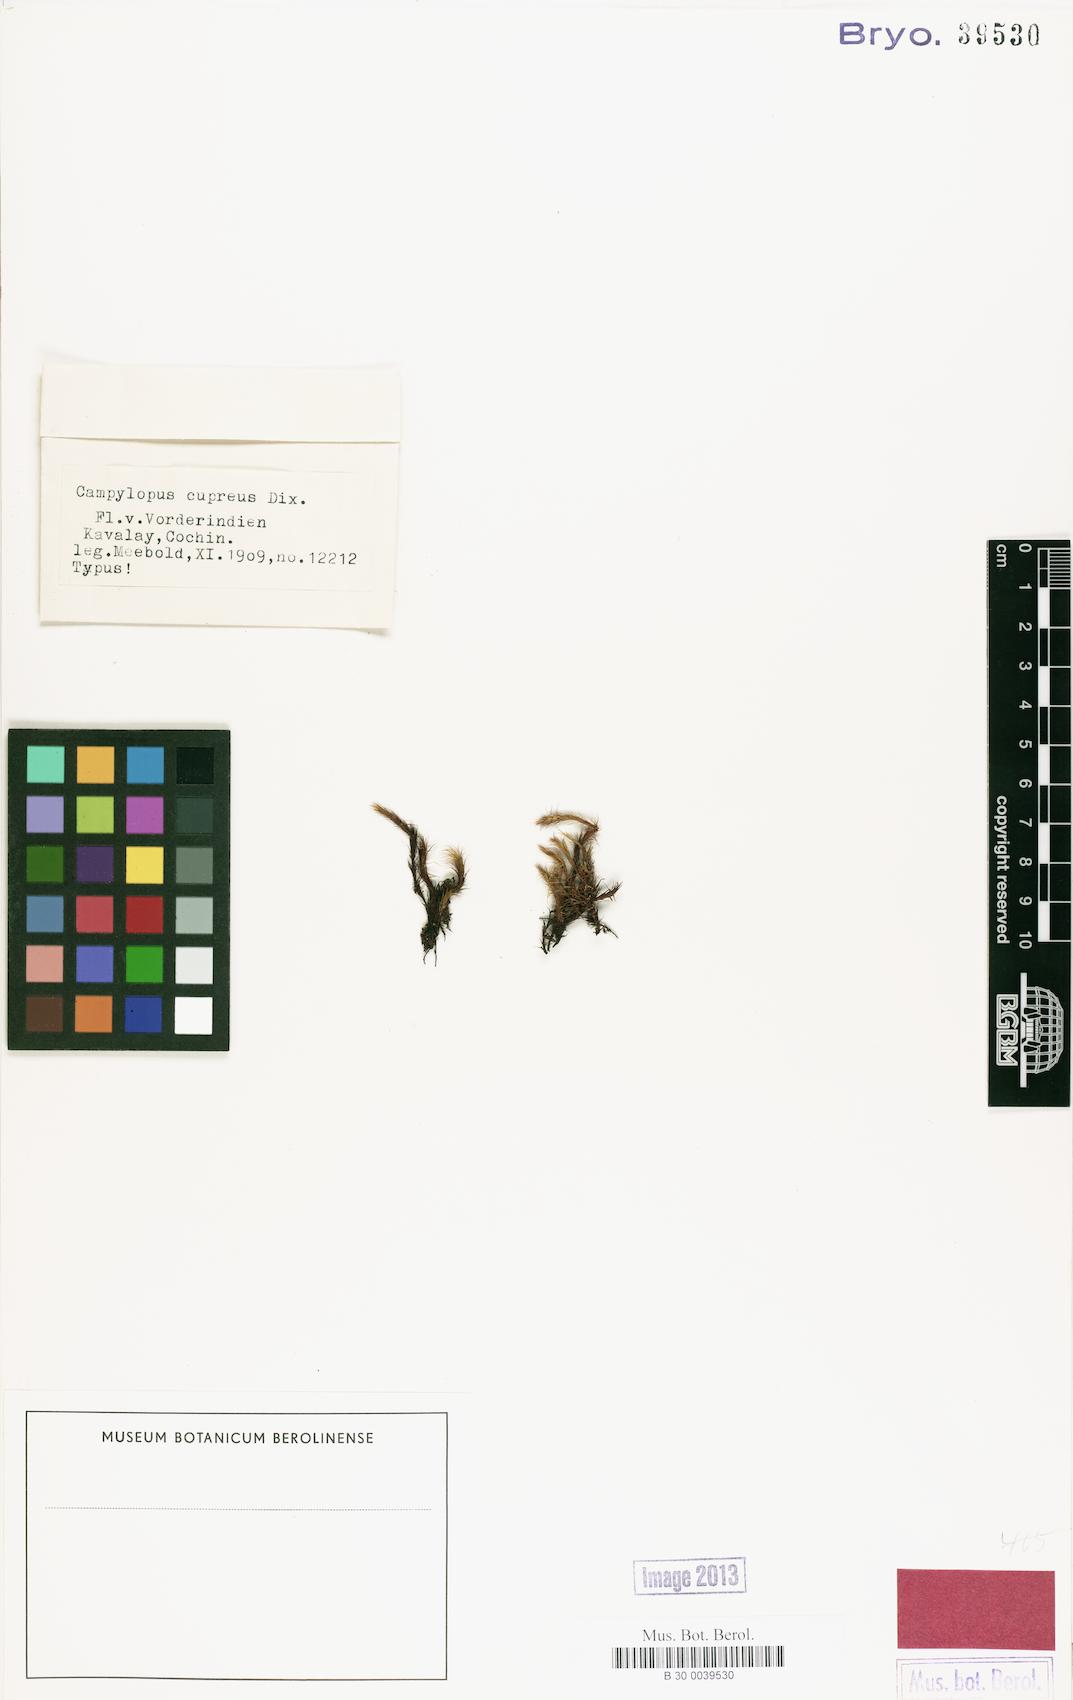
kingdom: Plantae
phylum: Bryophyta
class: Bryopsida
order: Dicranales
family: Dicranaceae
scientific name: Dicranaceae
